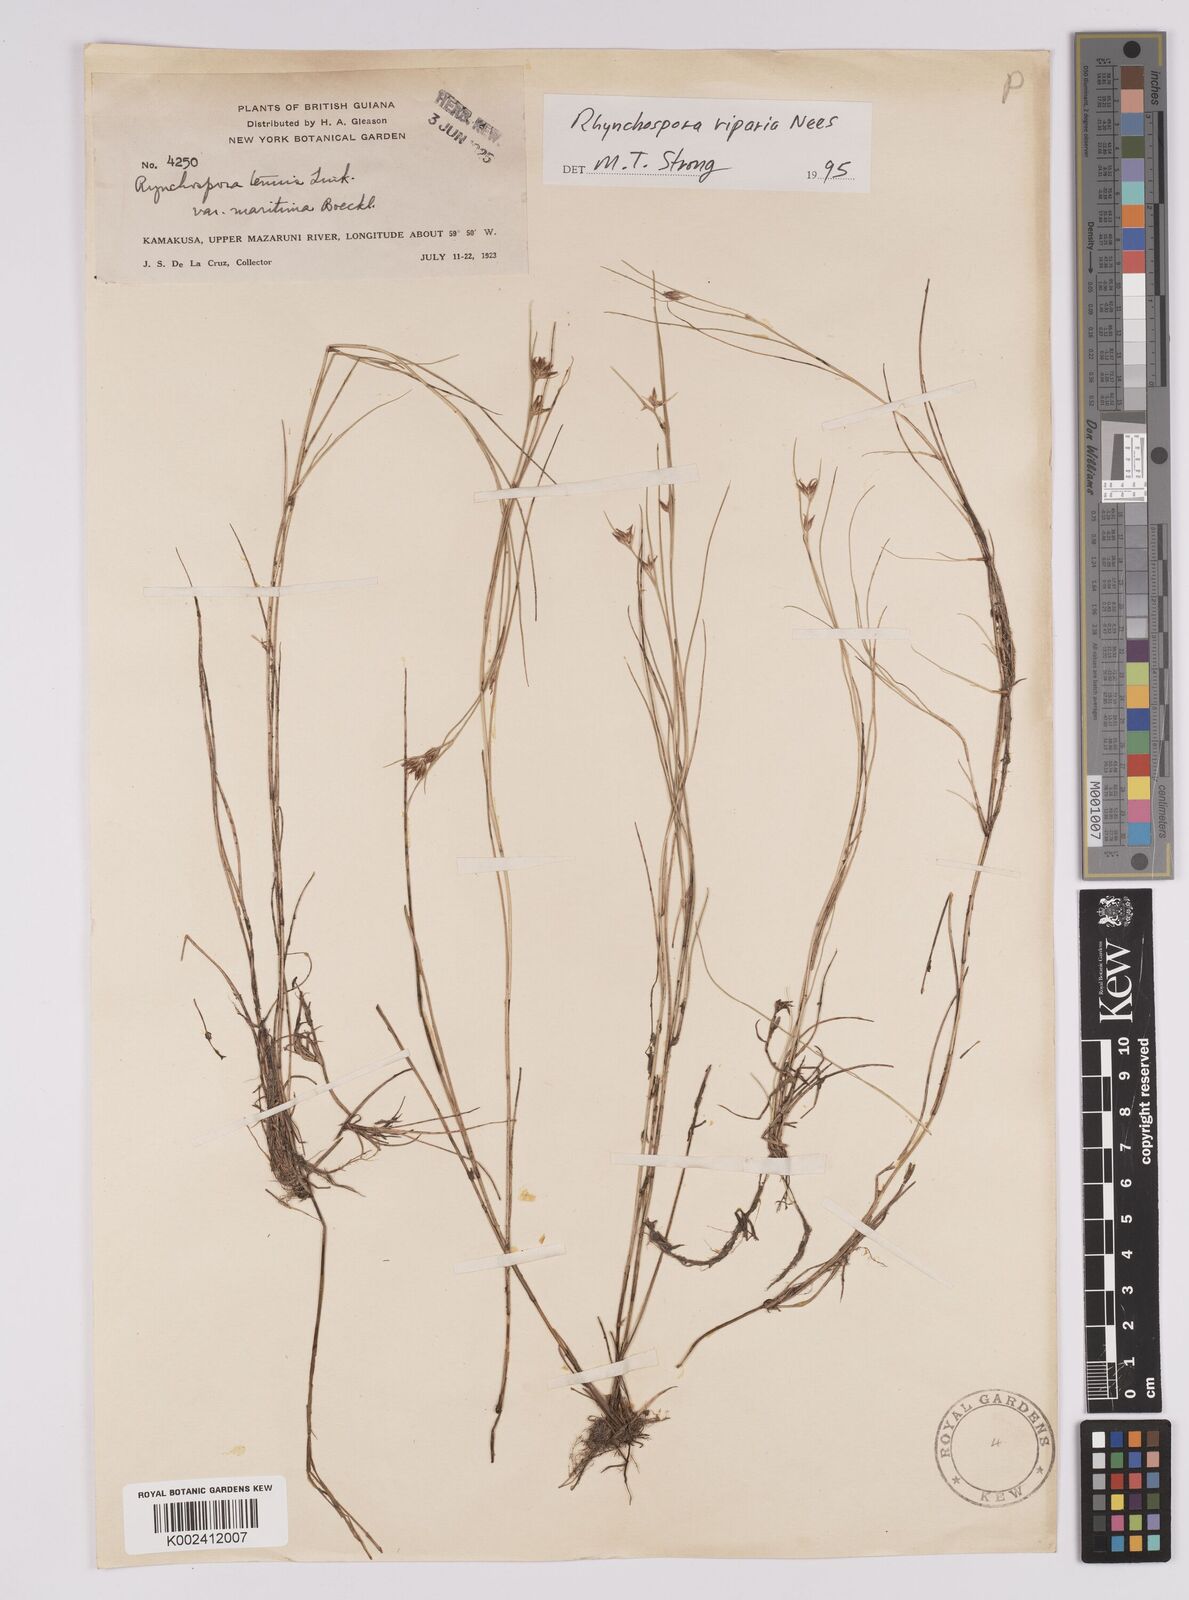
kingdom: Plantae
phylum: Tracheophyta
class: Liliopsida
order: Poales
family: Cyperaceae
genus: Rhynchospora
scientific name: Rhynchospora riparia
